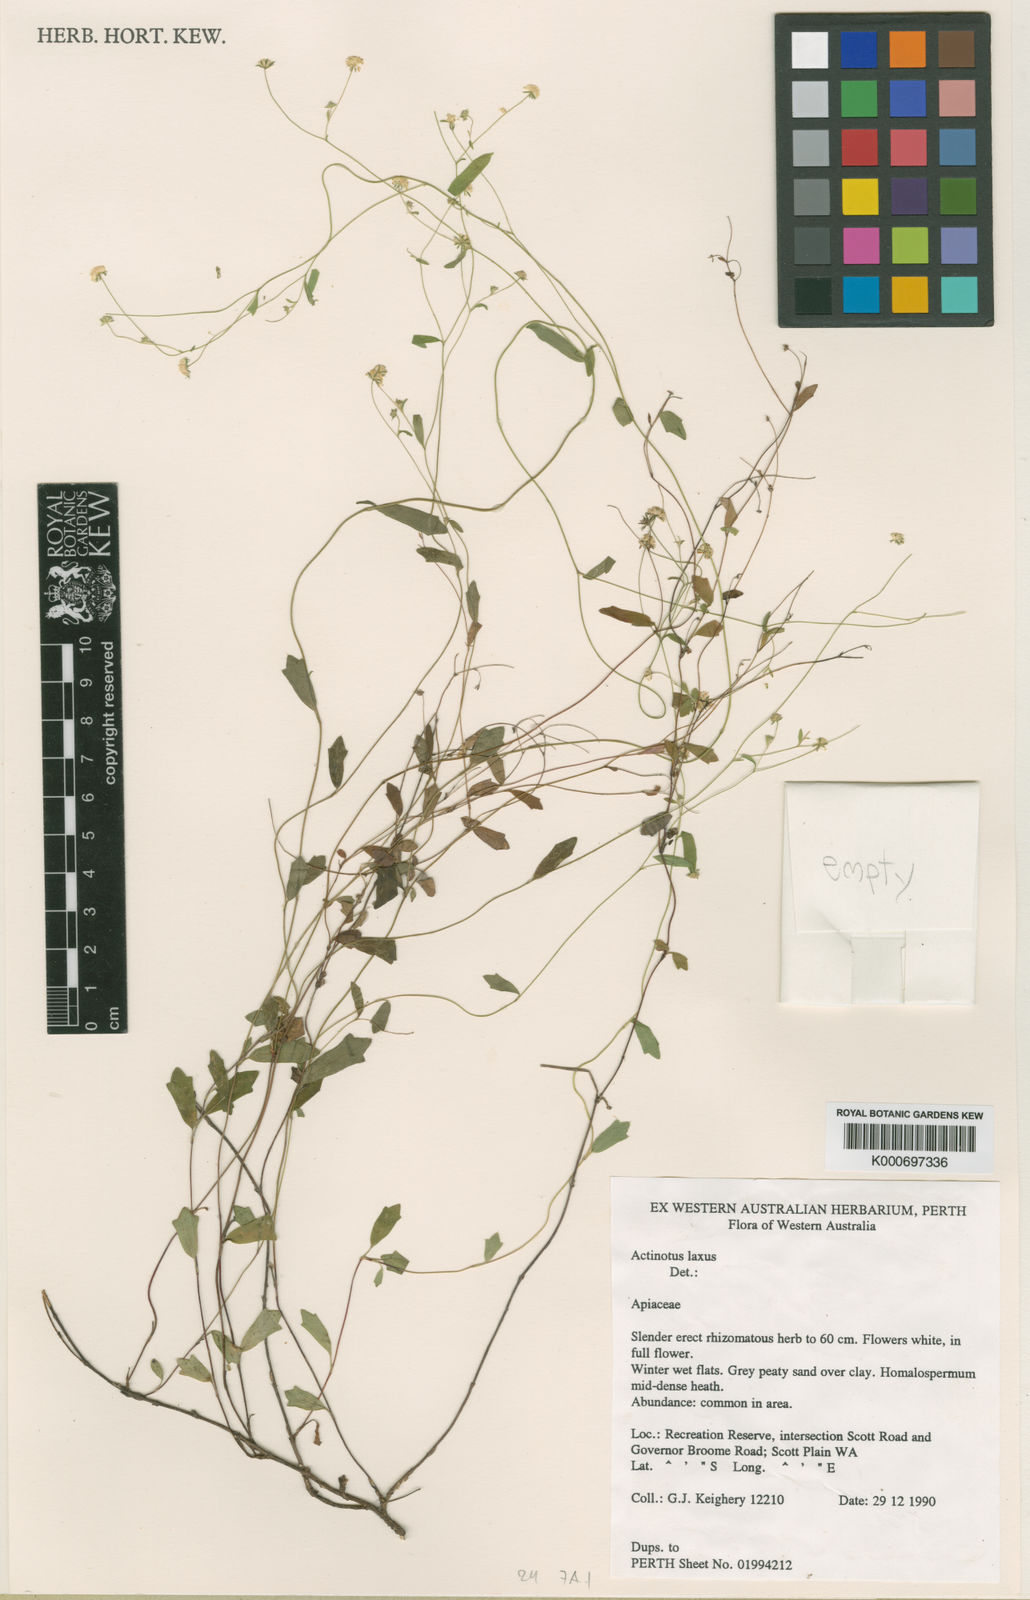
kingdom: Plantae
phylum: Tracheophyta
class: Magnoliopsida
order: Apiales
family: Apiaceae
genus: Actinotus
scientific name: Actinotus laxus
